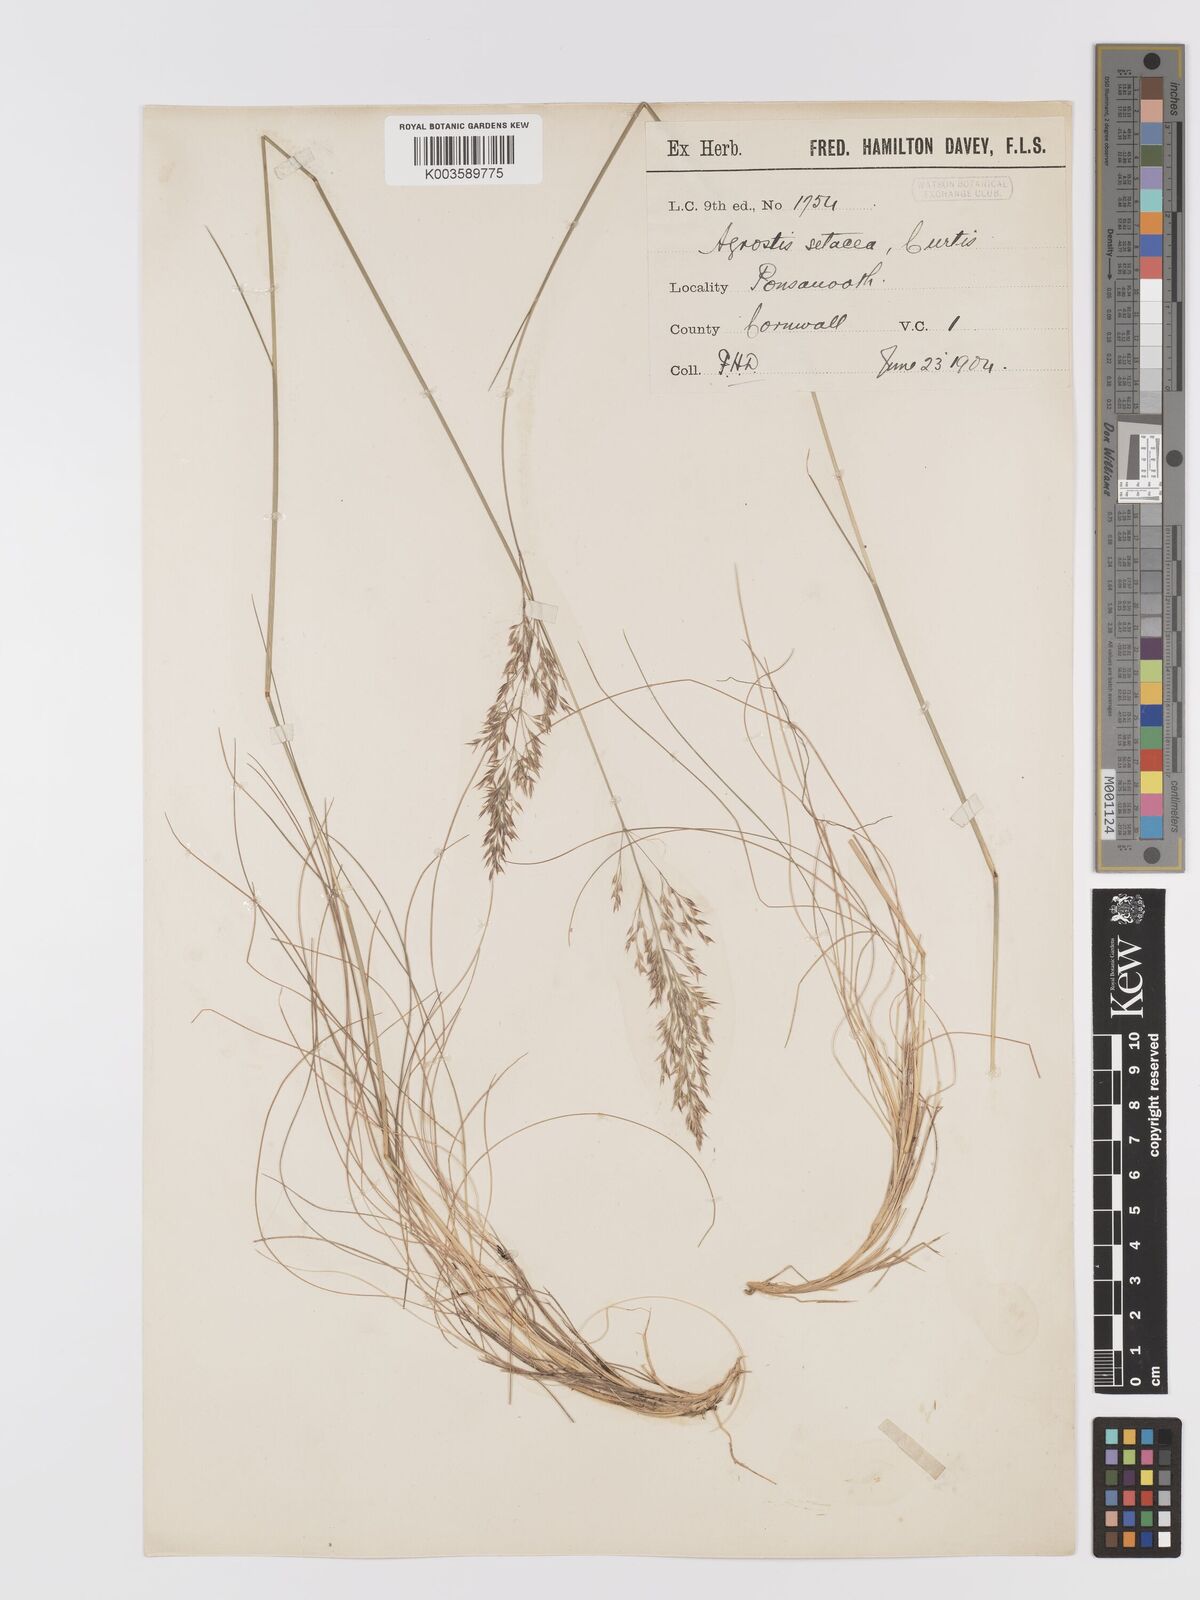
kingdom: Plantae
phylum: Tracheophyta
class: Liliopsida
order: Poales
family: Poaceae
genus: Alpagrostis
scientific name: Alpagrostis setacea
